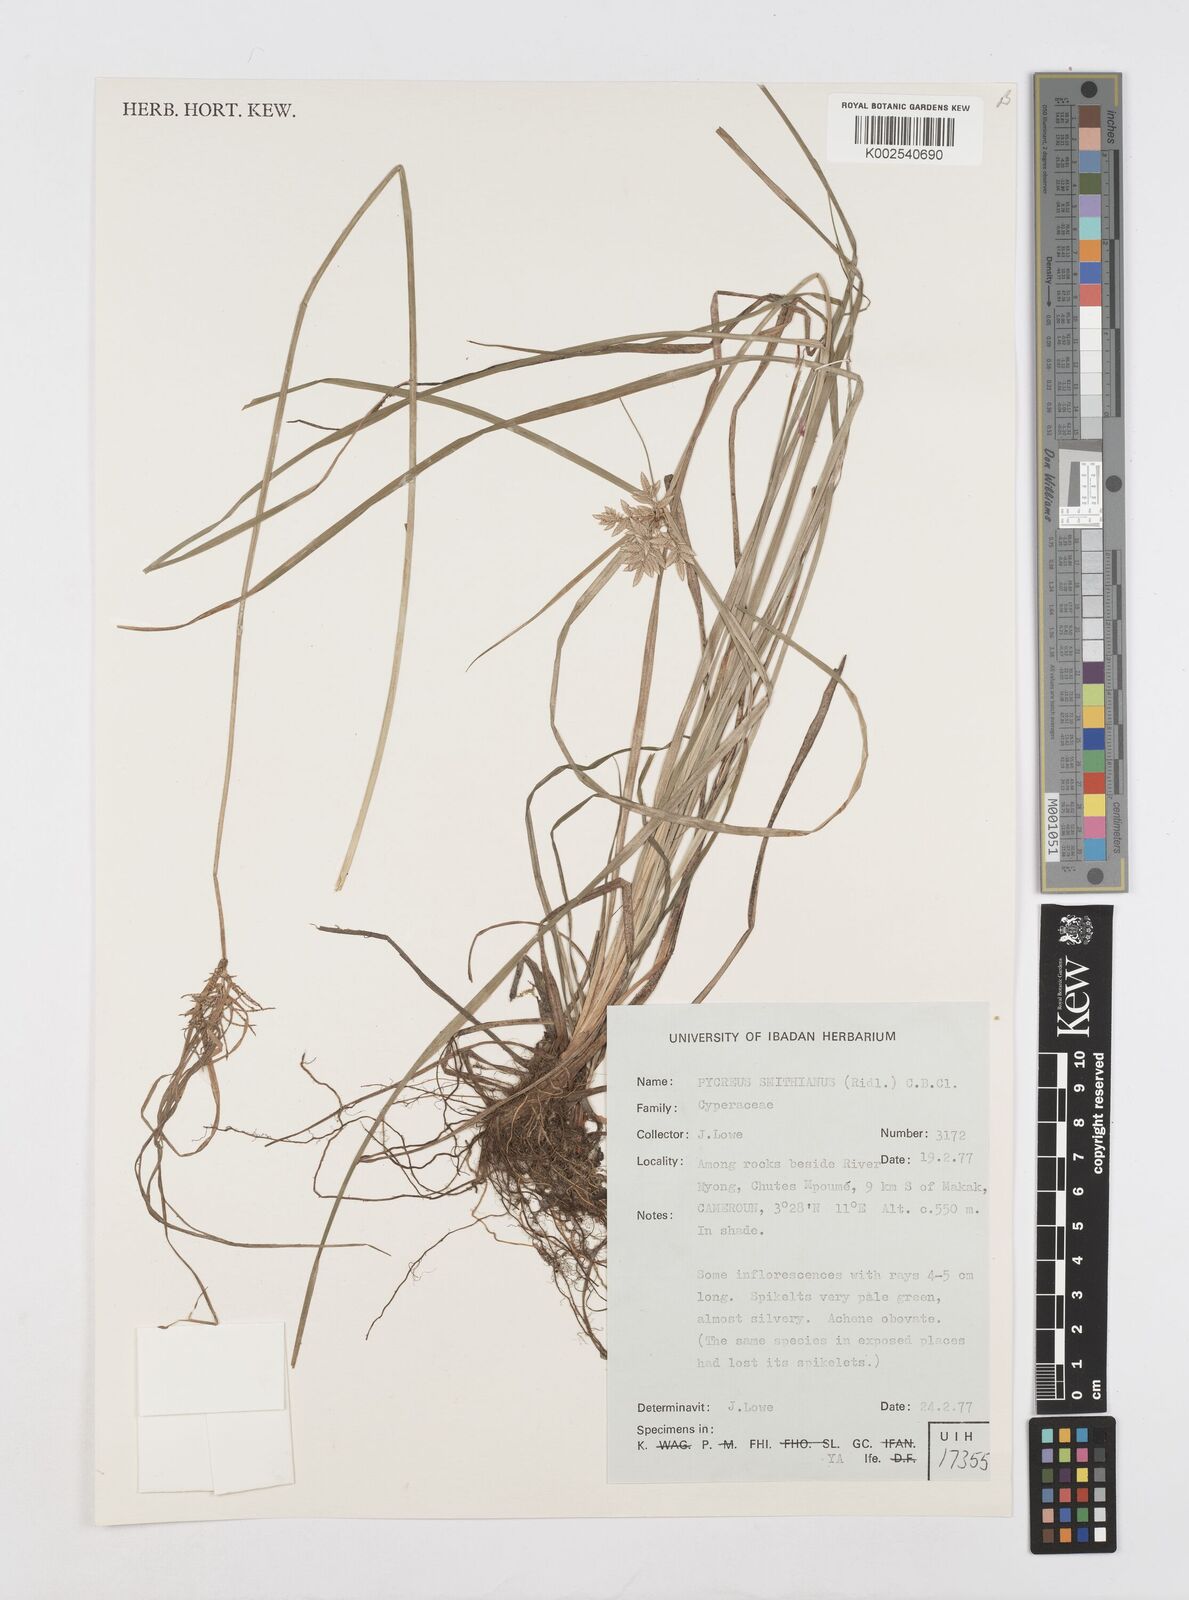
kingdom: Plantae
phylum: Tracheophyta
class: Liliopsida
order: Poales
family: Cyperaceae
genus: Cyperus
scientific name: Cyperus smithianus
